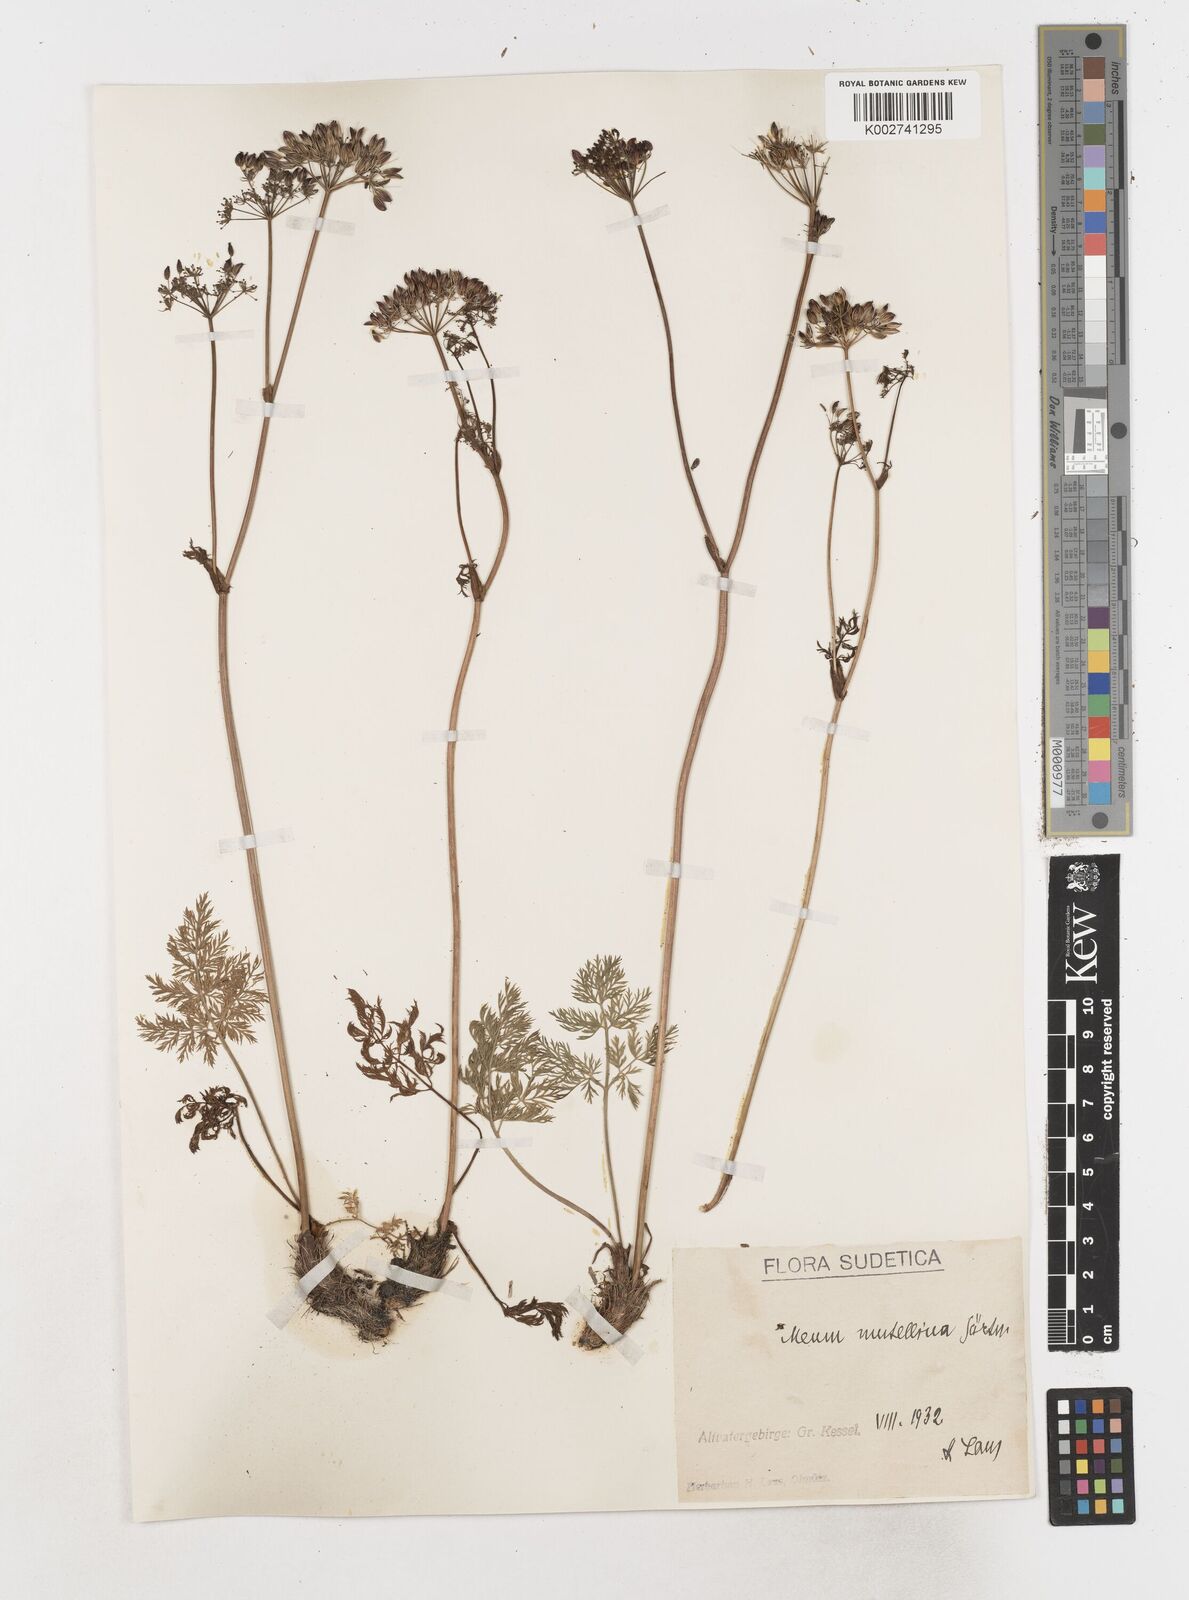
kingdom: Plantae
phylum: Tracheophyta
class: Magnoliopsida
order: Apiales
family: Apiaceae
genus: Mutellina
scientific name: Mutellina adonidifolia
